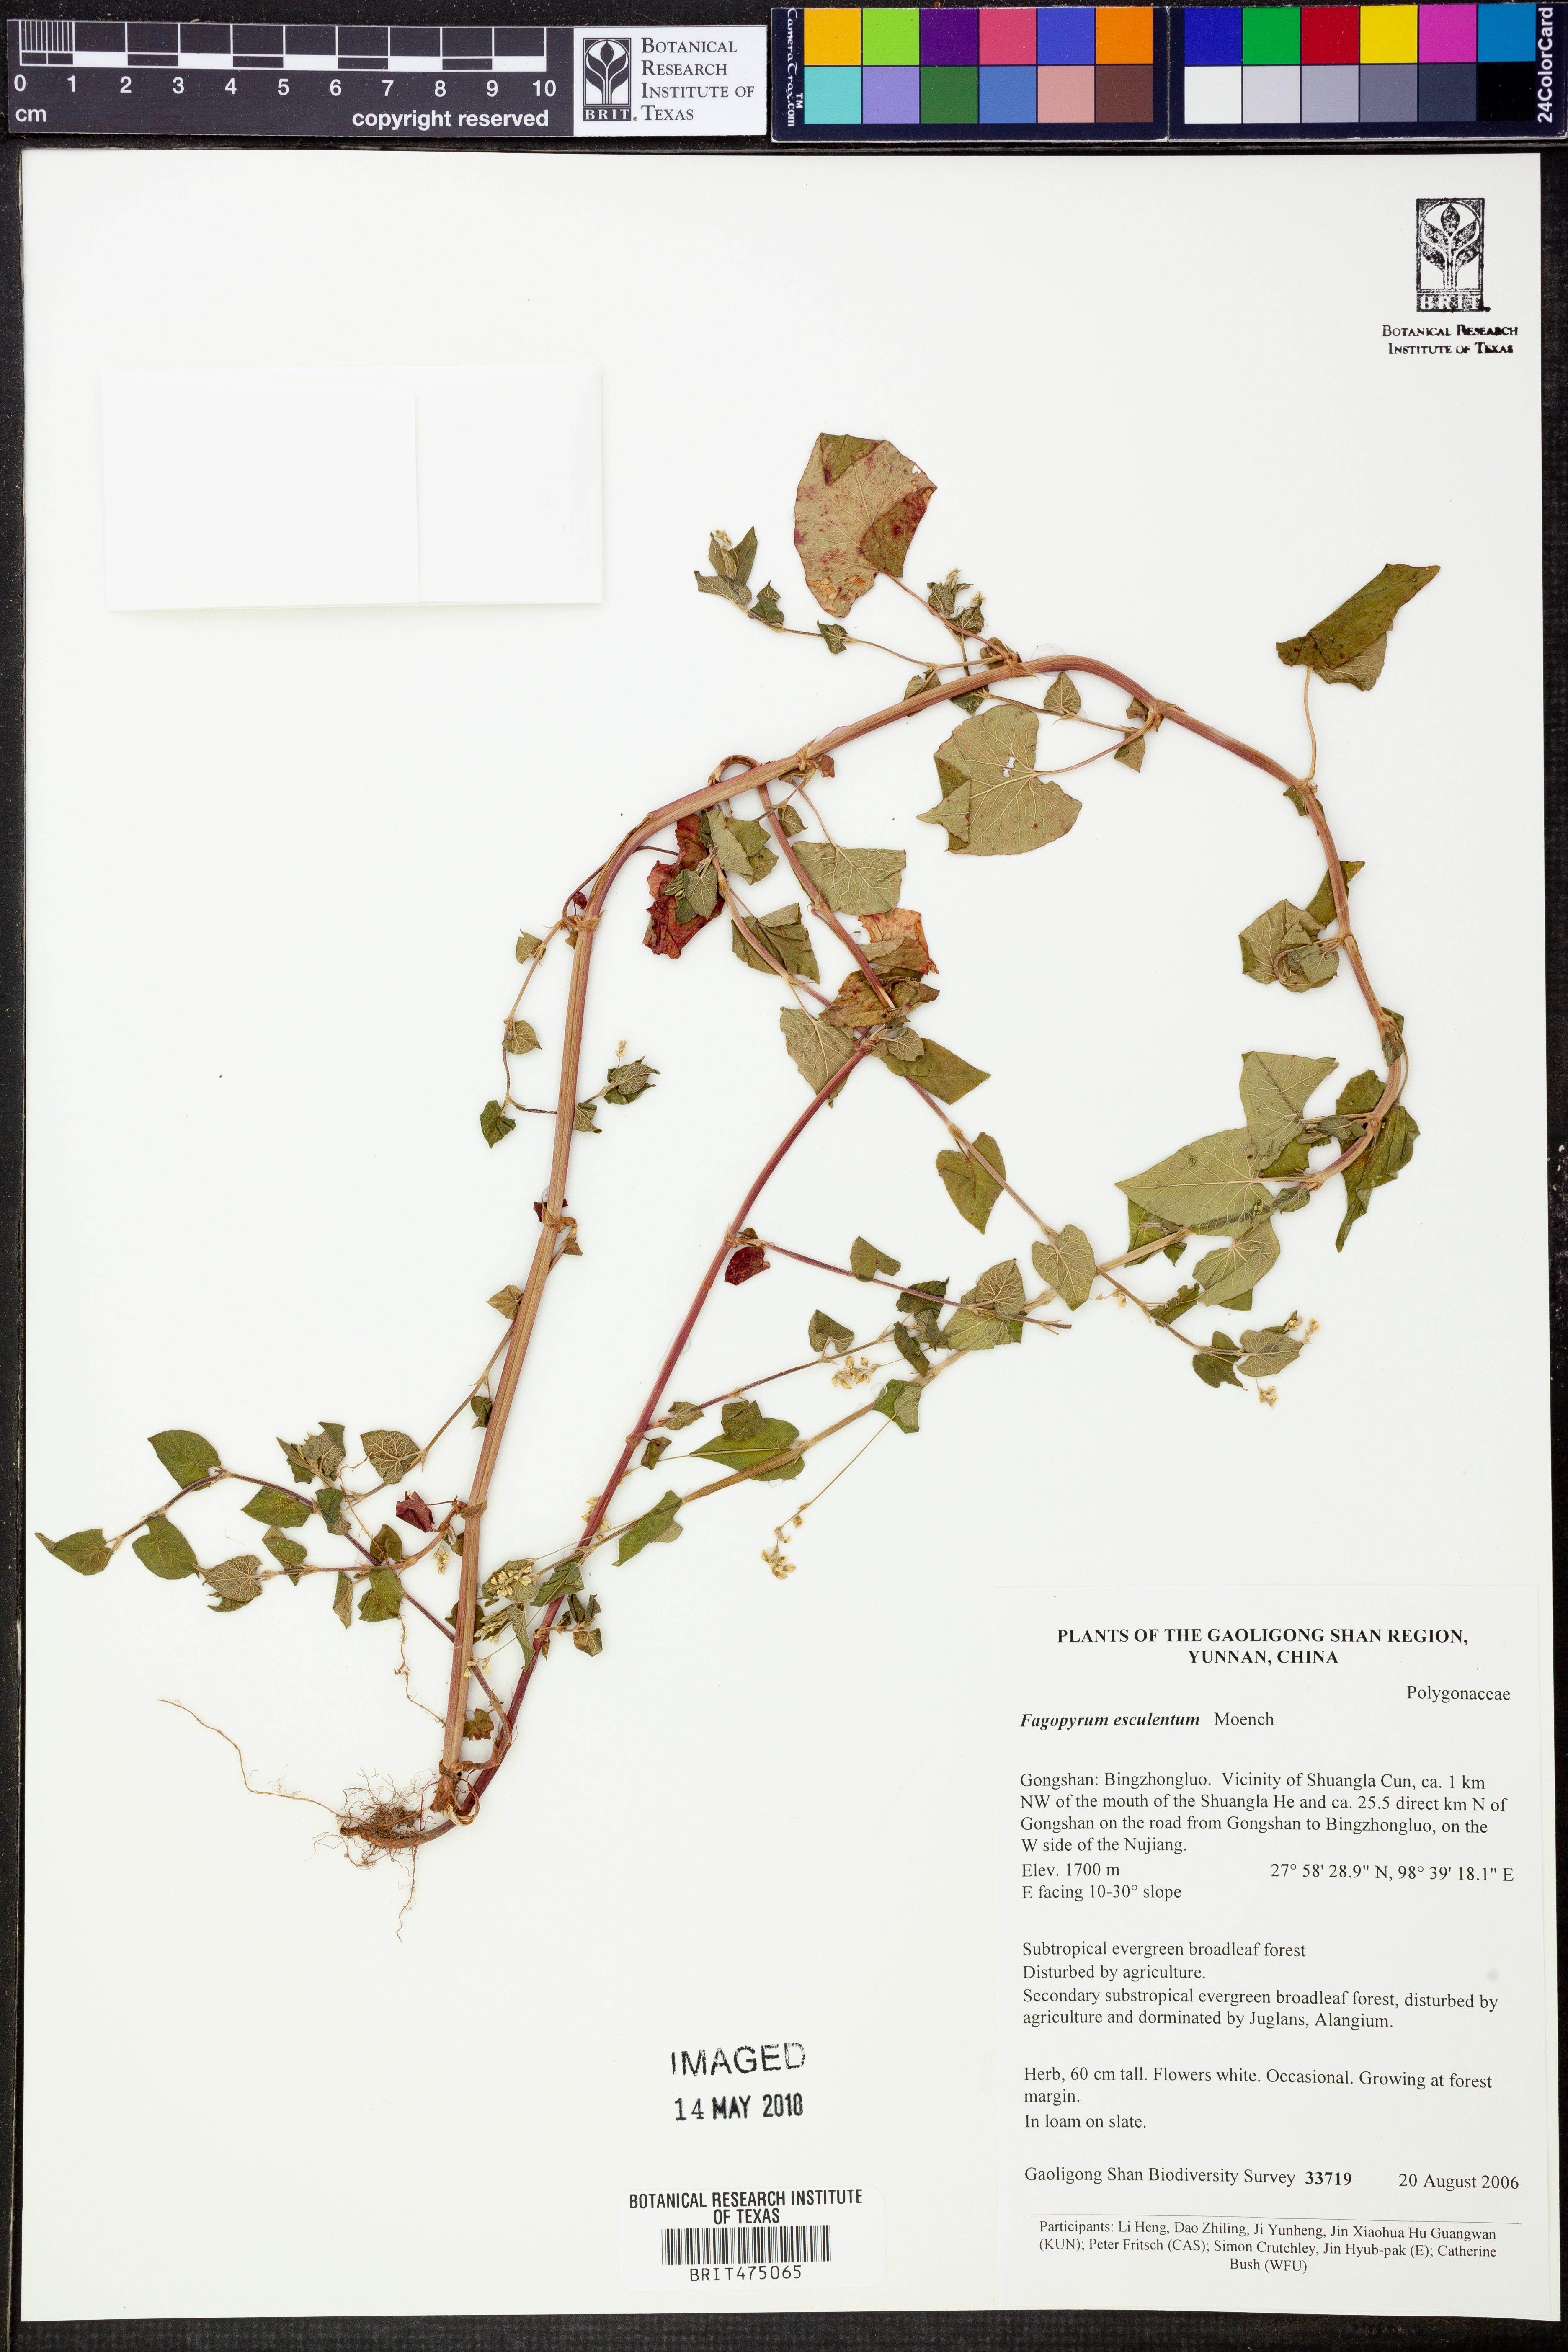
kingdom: Plantae
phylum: Tracheophyta
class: Magnoliopsida
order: Caryophyllales
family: Polygonaceae
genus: Fagopyrum
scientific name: Fagopyrum esculentum
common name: Buckwheat
